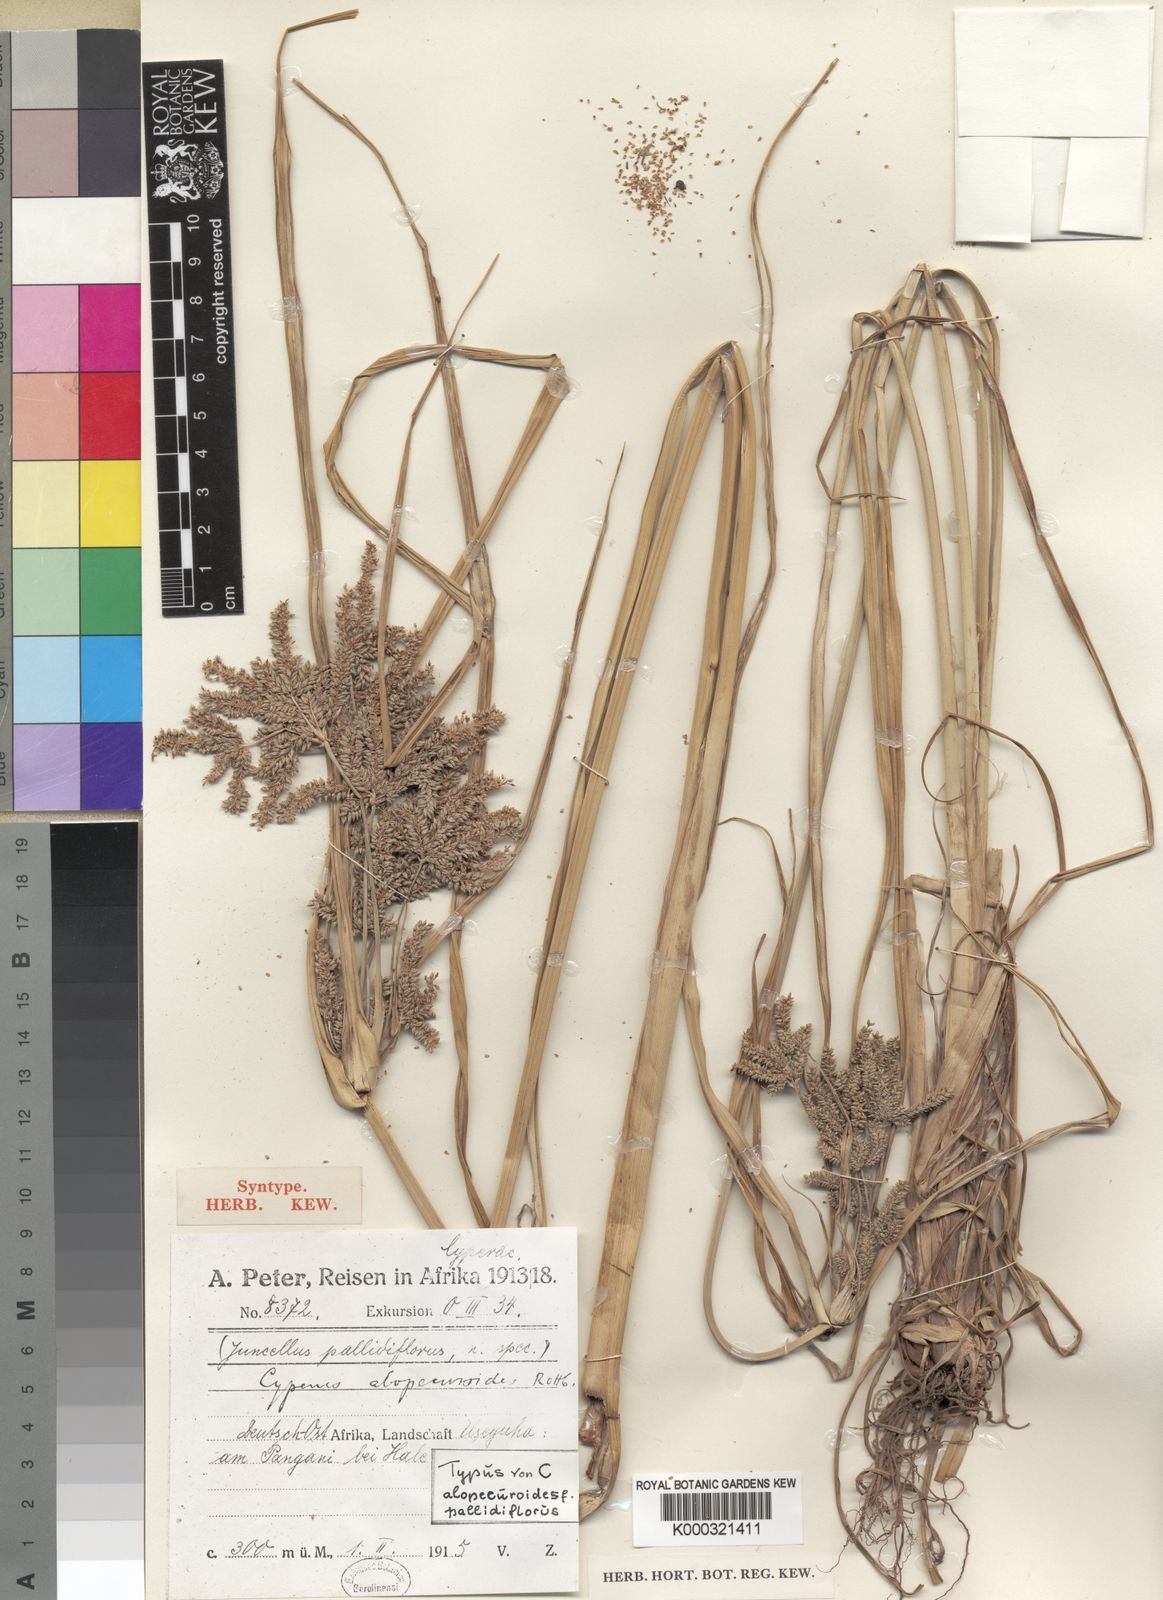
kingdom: Plantae
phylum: Tracheophyta
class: Liliopsida
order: Poales
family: Cyperaceae
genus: Cyperus
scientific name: Cyperus
